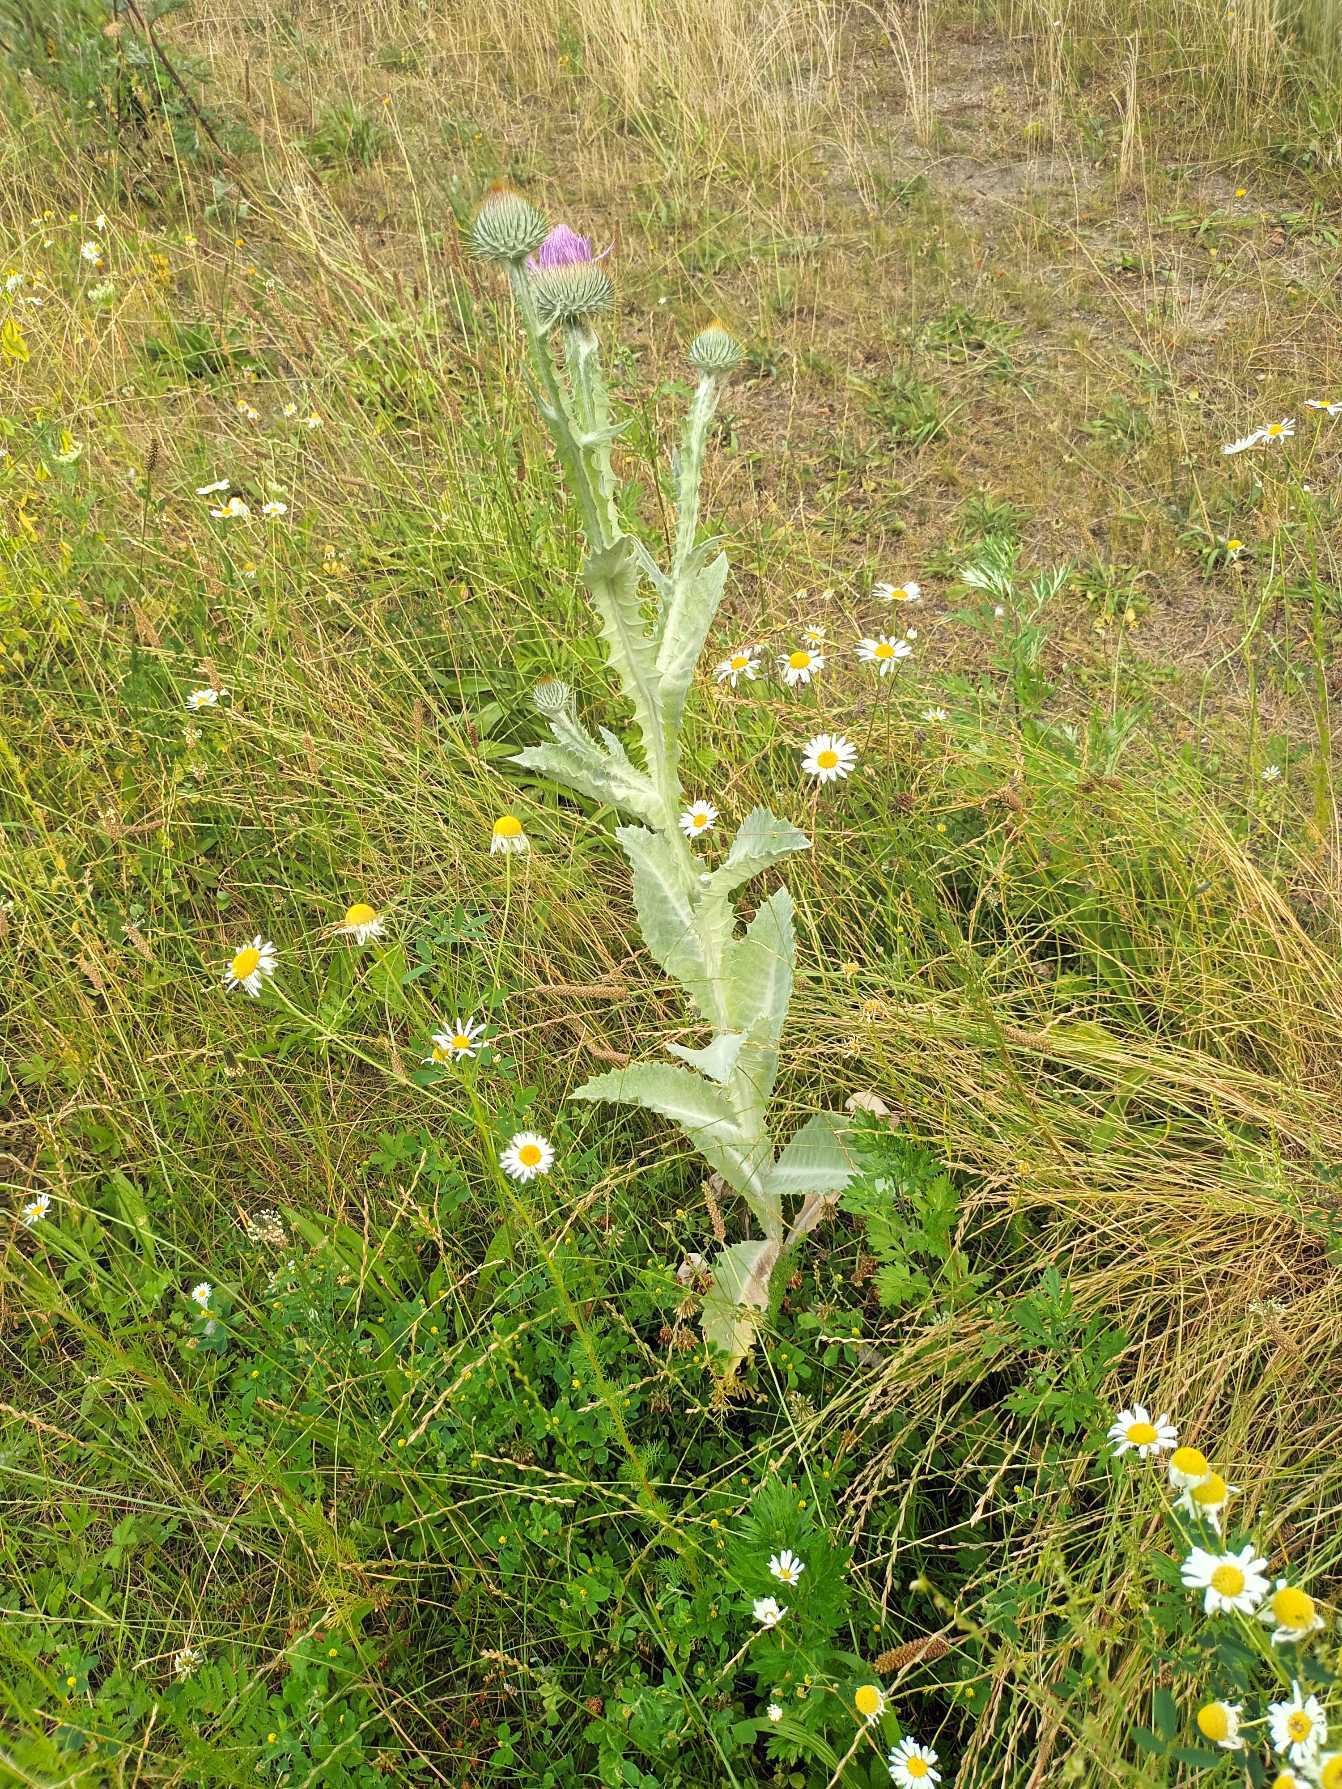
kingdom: Plantae
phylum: Tracheophyta
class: Magnoliopsida
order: Asterales
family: Asteraceae
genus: Onopordum
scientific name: Onopordum acanthium
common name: Æselfoder
